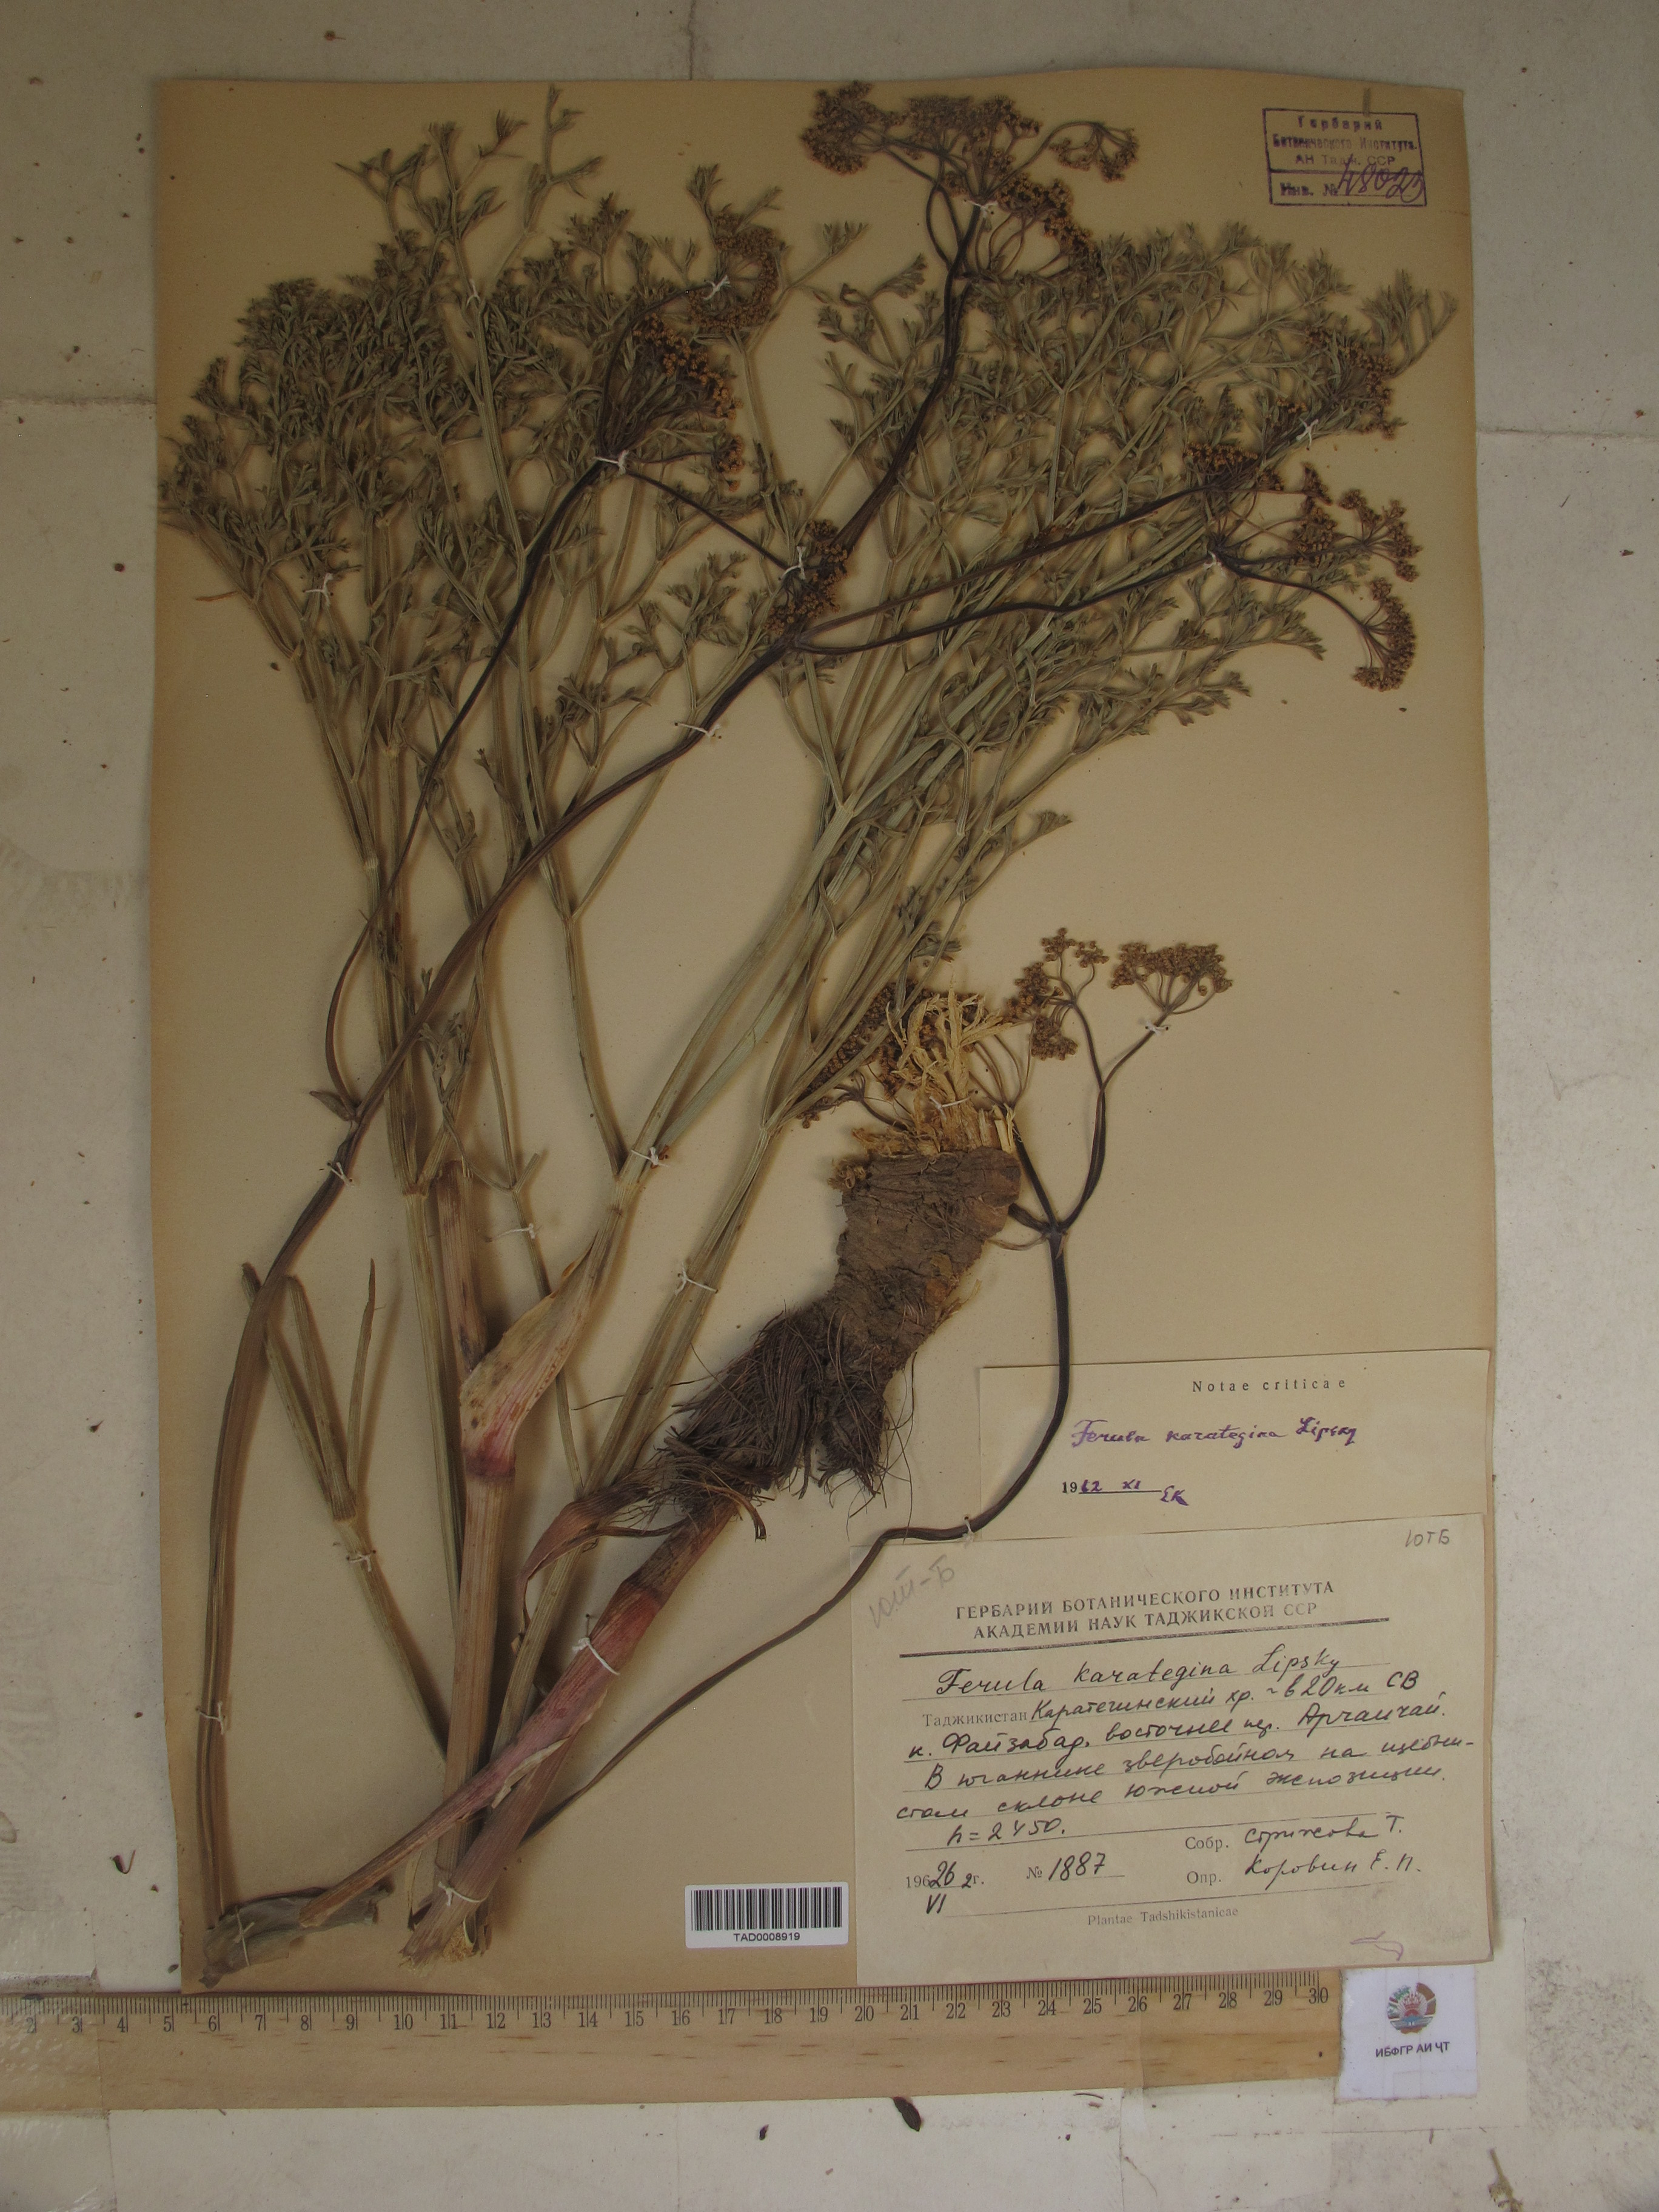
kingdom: Plantae
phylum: Tracheophyta
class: Magnoliopsida
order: Apiales
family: Apiaceae
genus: Ferula
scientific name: Ferula karategina
